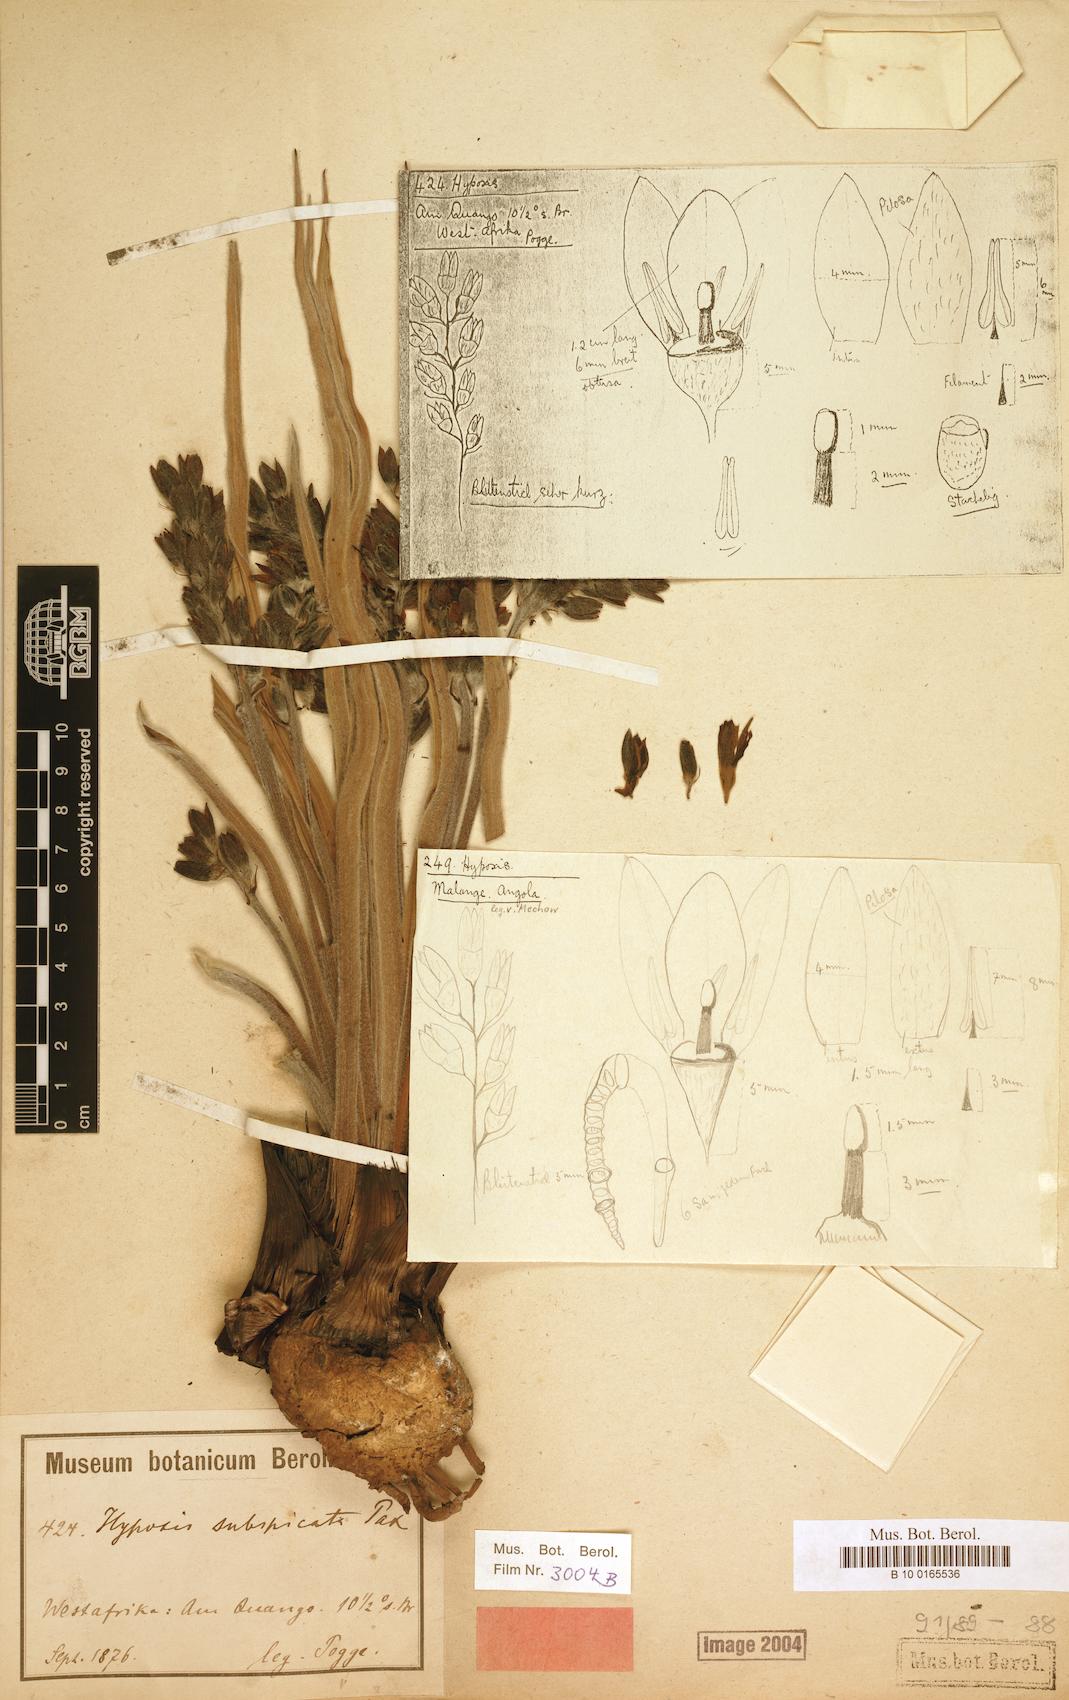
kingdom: Plantae
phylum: Tracheophyta
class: Liliopsida
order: Asparagales
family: Hypoxidaceae
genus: Hypoxis
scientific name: Hypoxis polystachya
